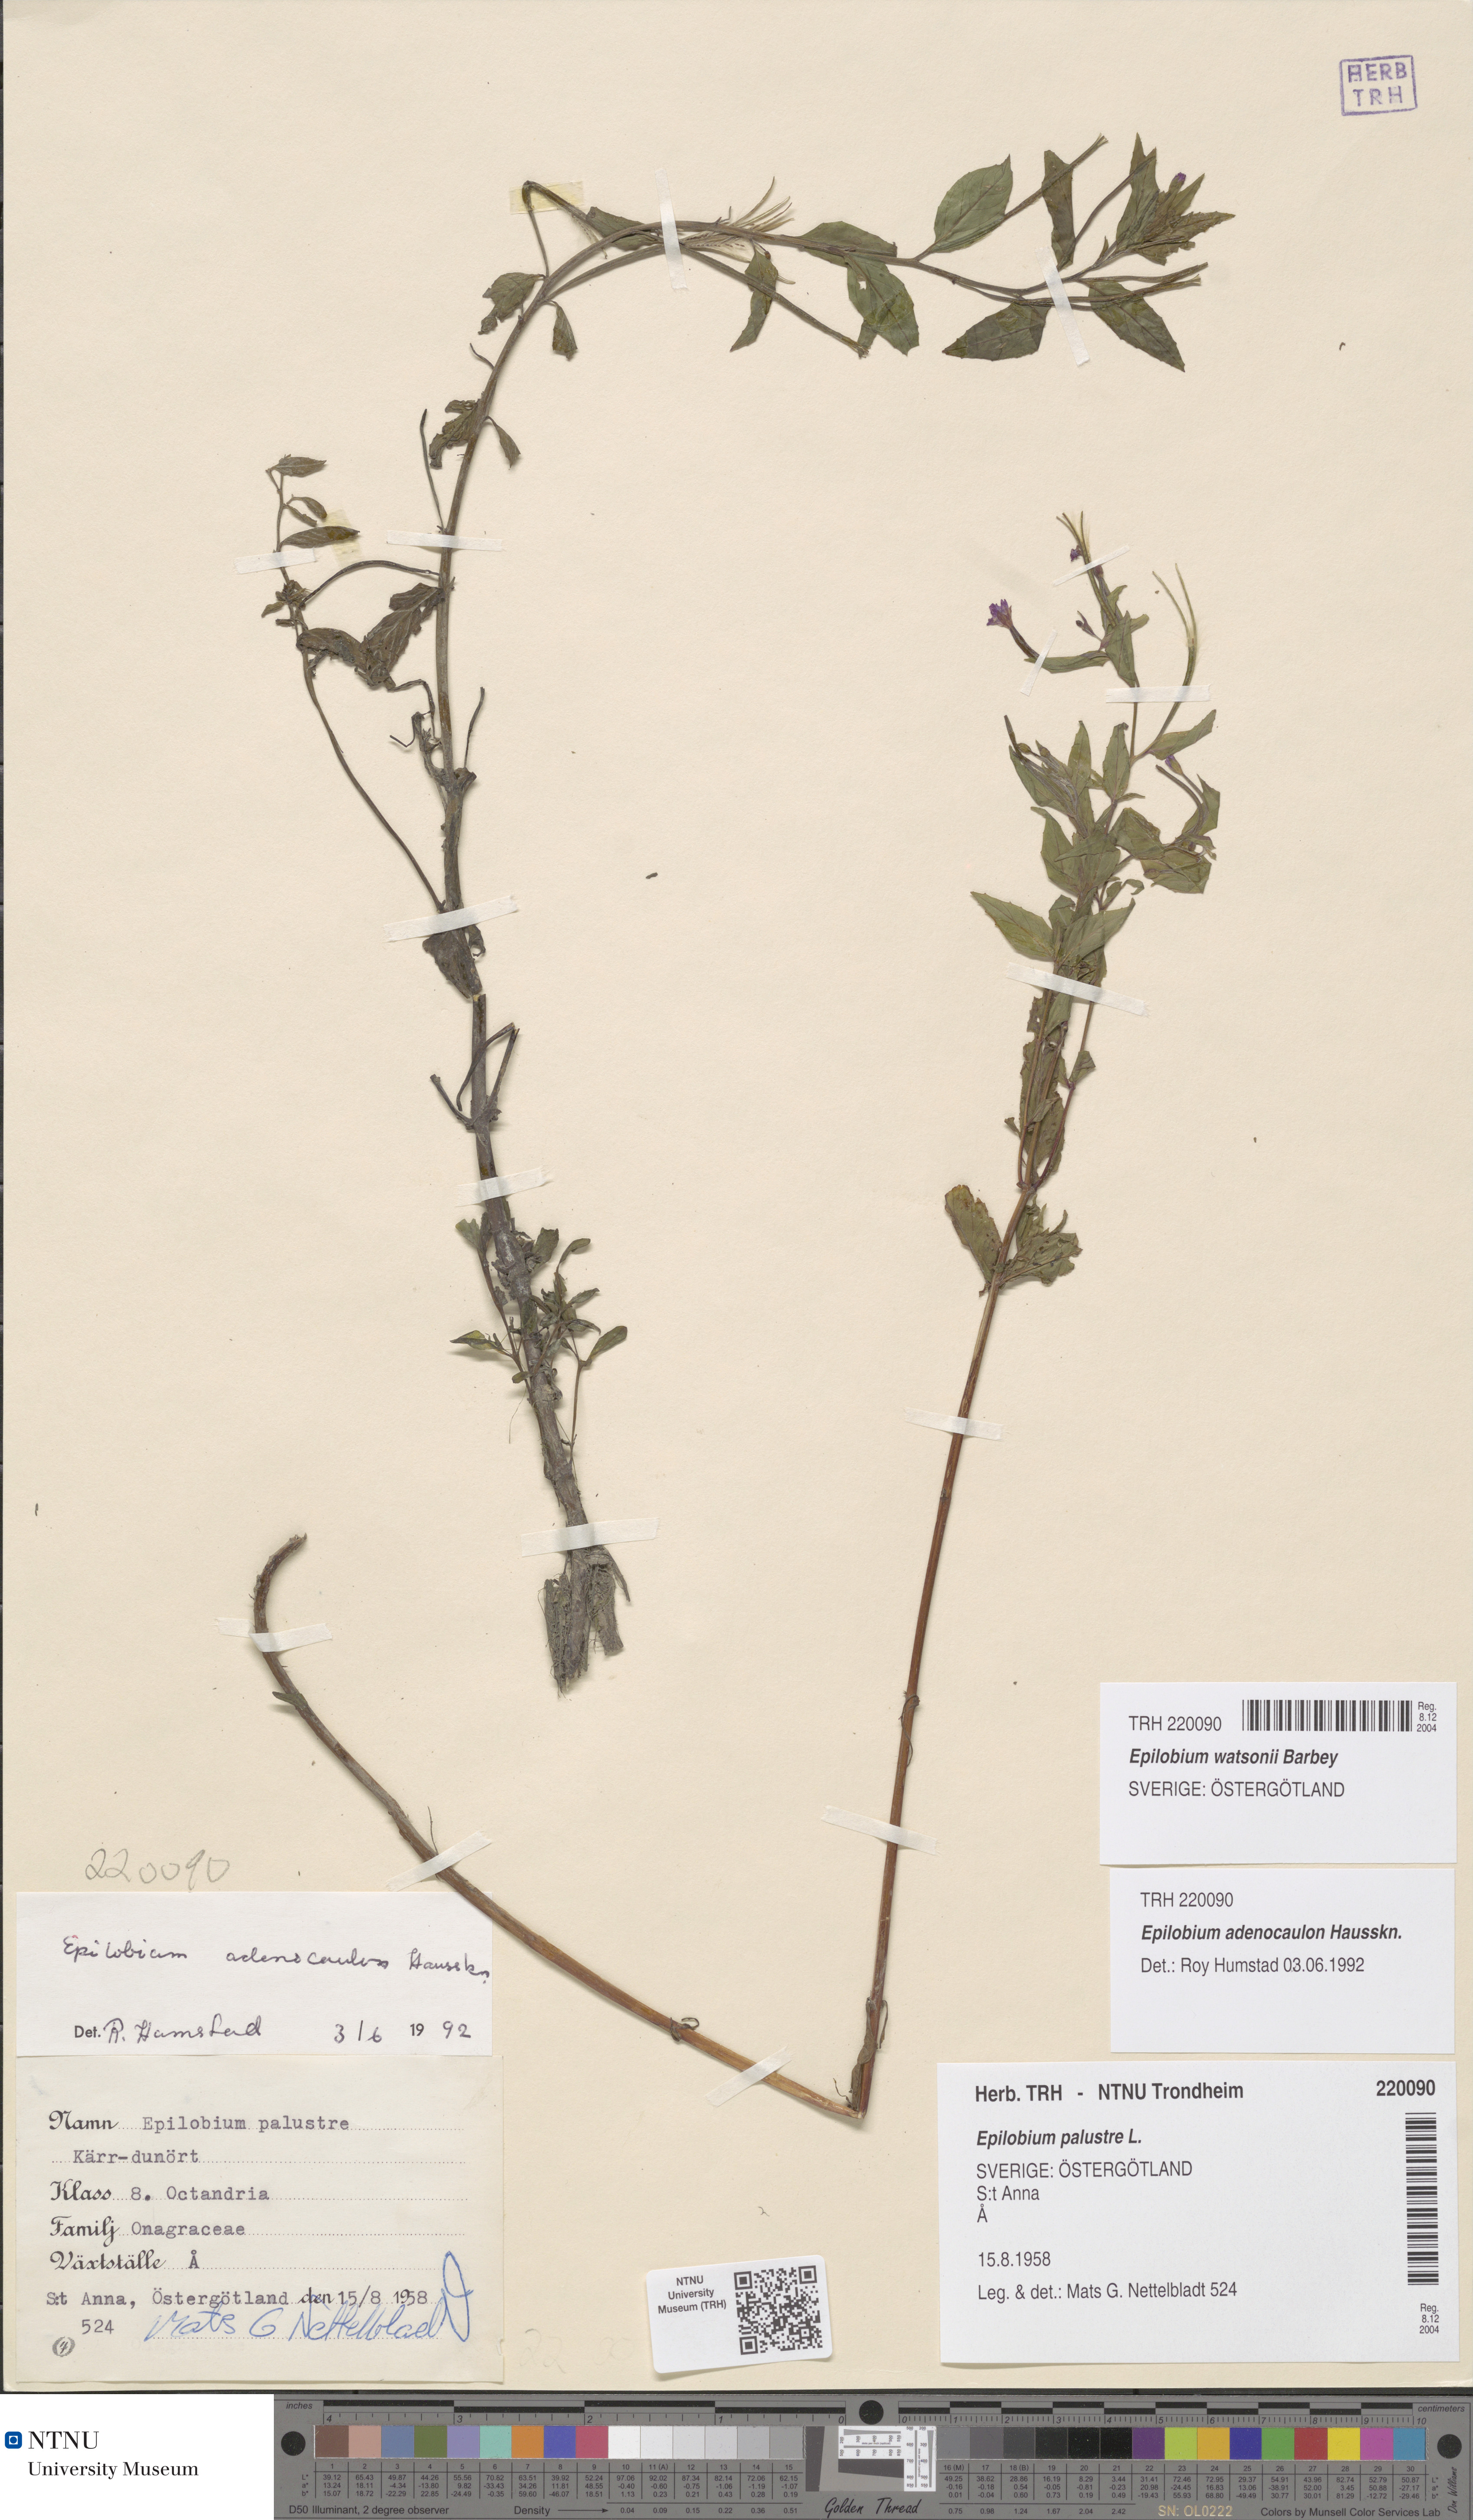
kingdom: Plantae
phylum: Tracheophyta
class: Magnoliopsida
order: Myrtales
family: Onagraceae
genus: Epilobium
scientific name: Epilobium ciliatum
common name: American willowherb
